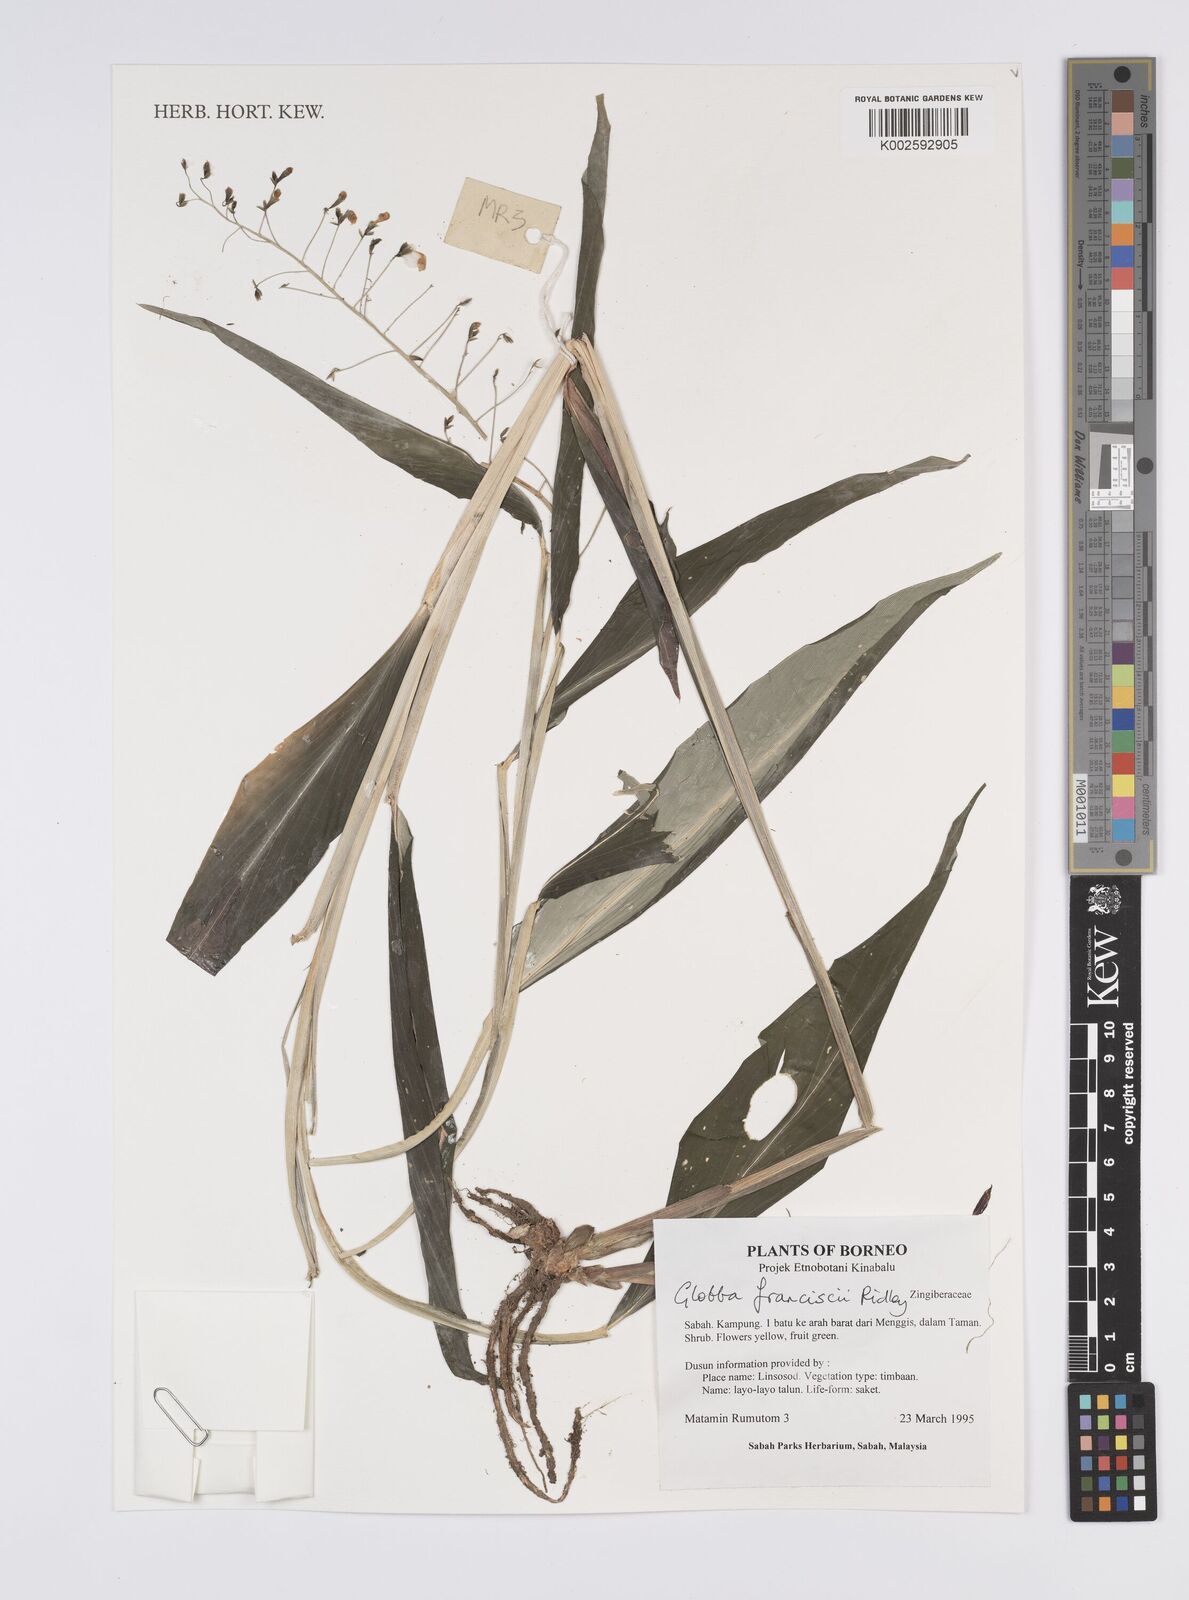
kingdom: Plantae
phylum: Tracheophyta
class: Liliopsida
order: Zingiberales
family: Zingiberaceae
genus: Globba
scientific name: Globba francisci
